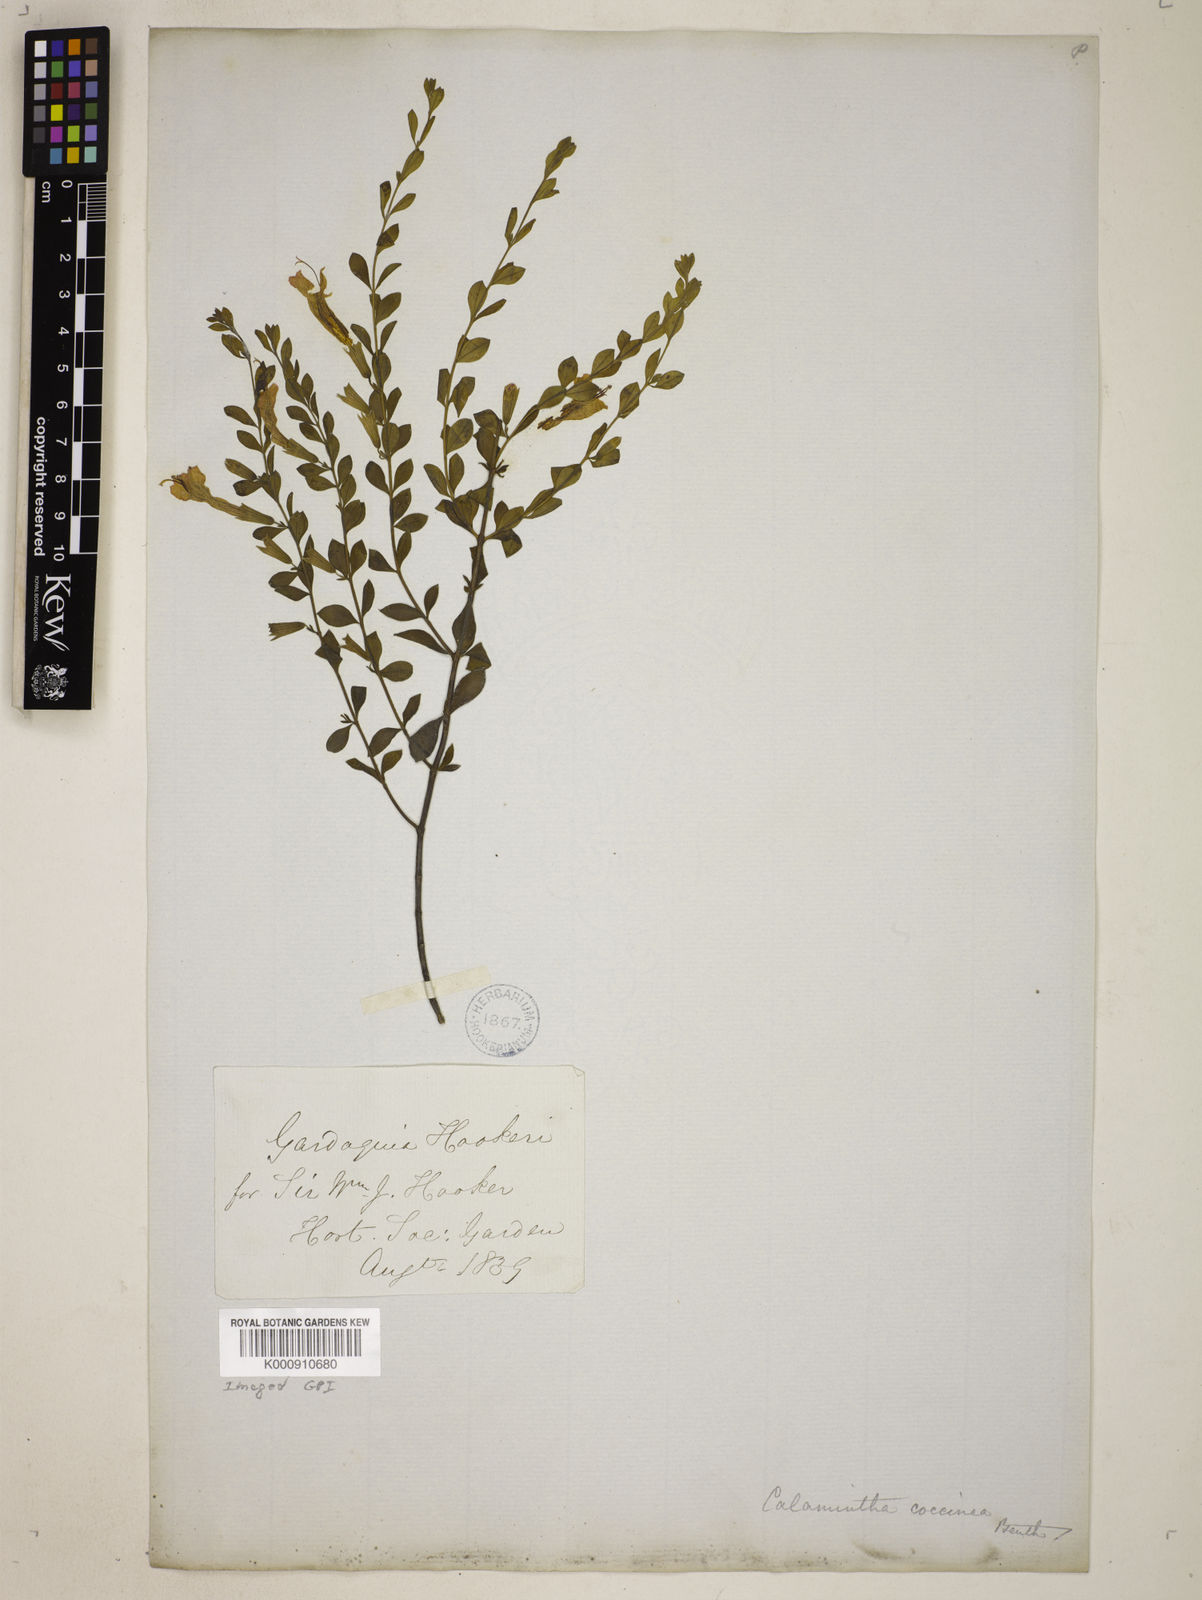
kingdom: Plantae
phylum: Tracheophyta
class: Magnoliopsida
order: Lamiales
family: Lamiaceae
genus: Clinopodium
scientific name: Clinopodium coccineum
